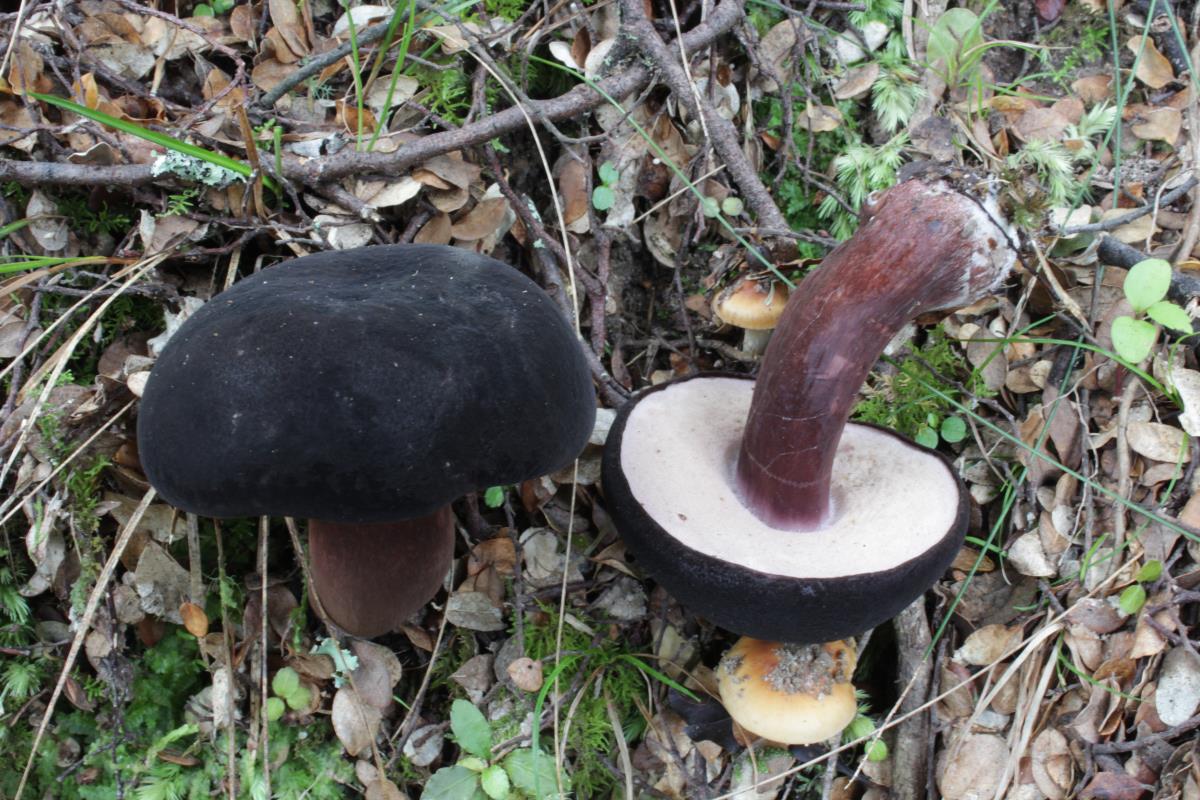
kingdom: Fungi
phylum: Basidiomycota
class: Agaricomycetes
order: Boletales
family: Boletaceae
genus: Porphyrellus
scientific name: Porphyrellus formosus
